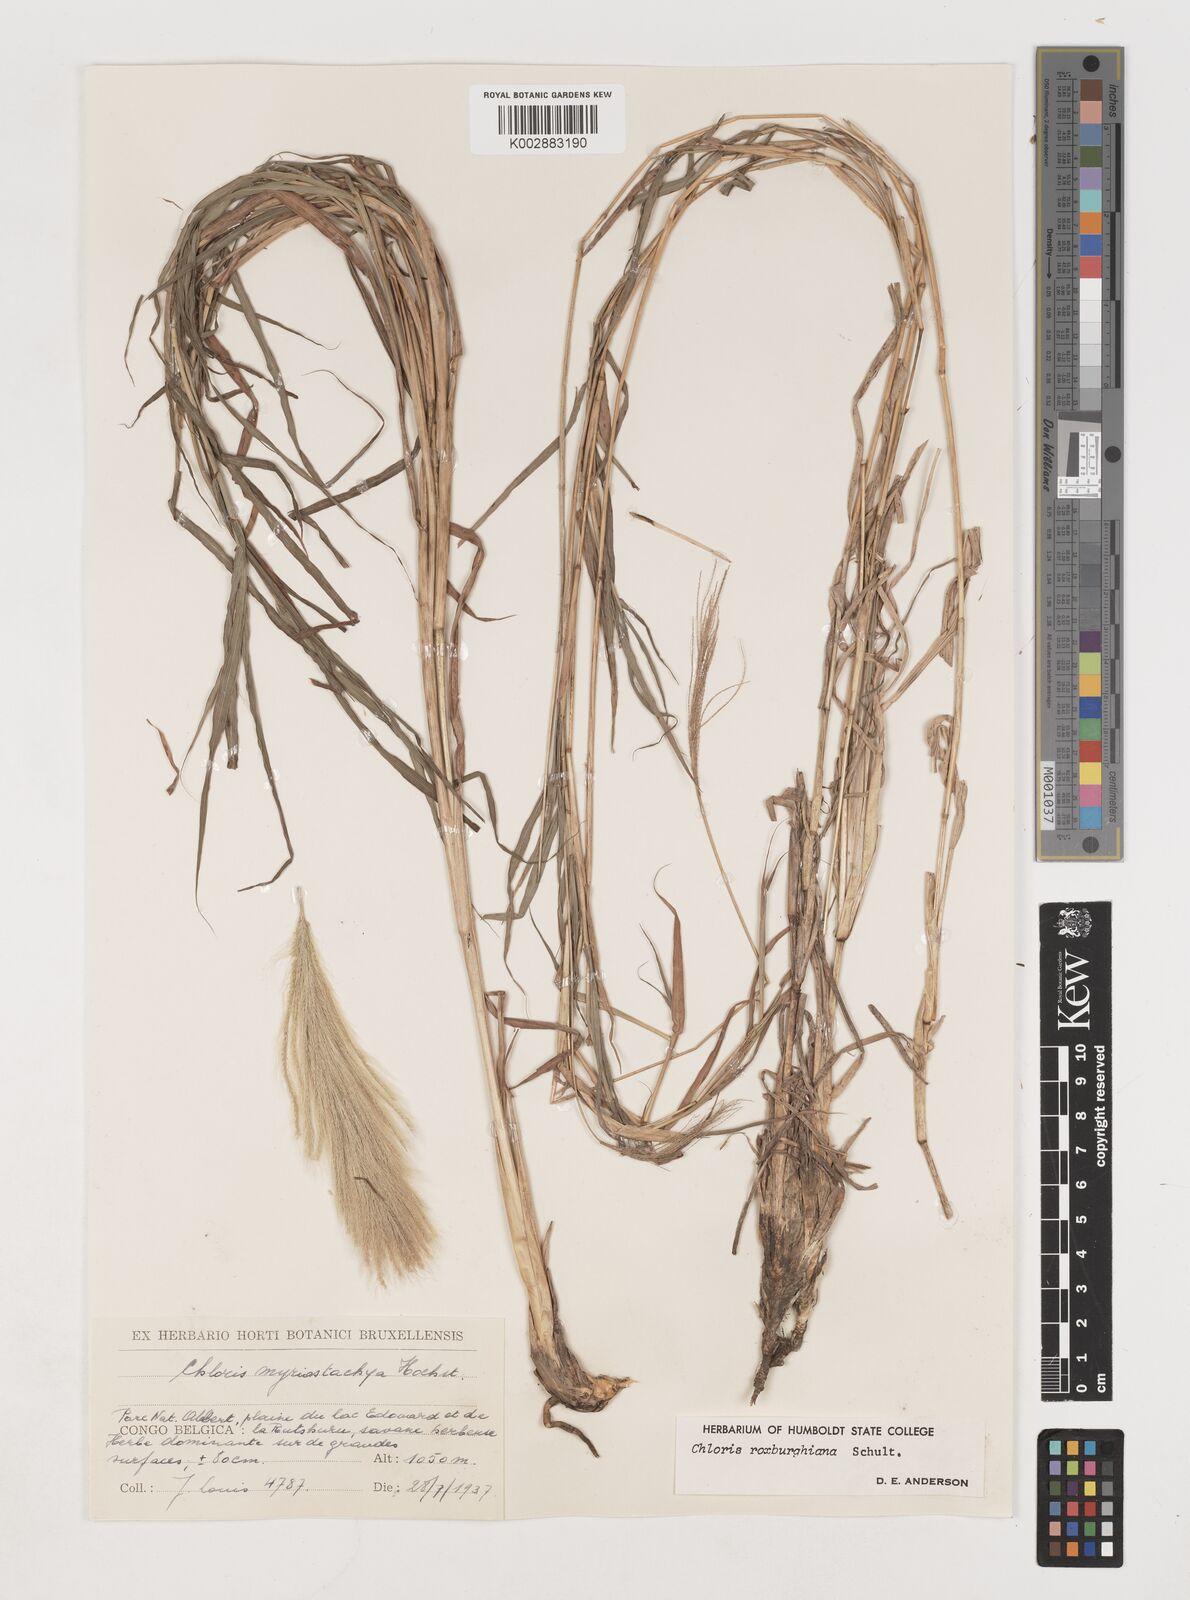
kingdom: Plantae
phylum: Tracheophyta
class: Liliopsida
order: Poales
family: Poaceae
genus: Tetrapogon
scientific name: Tetrapogon roxburghiana
